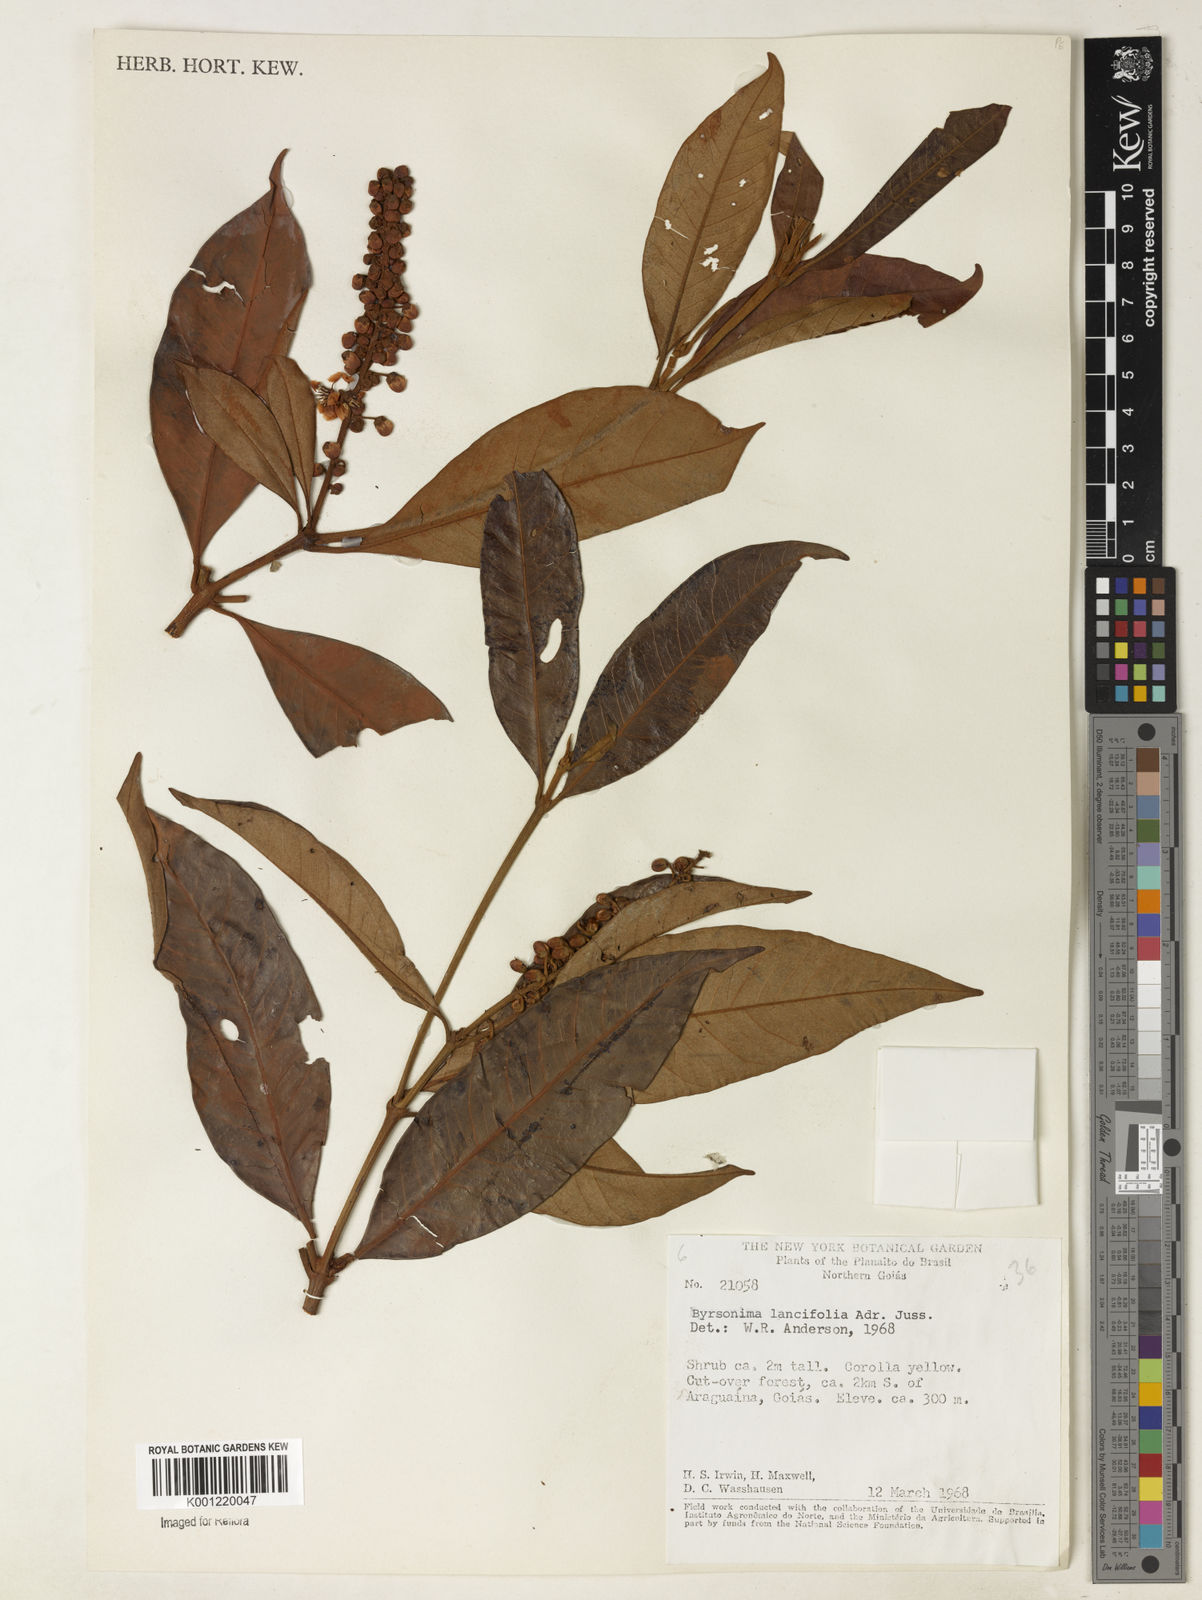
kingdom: Plantae
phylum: Tracheophyta
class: Magnoliopsida
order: Malpighiales
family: Malpighiaceae
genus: Byrsonima
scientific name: Byrsonima lancifolia
